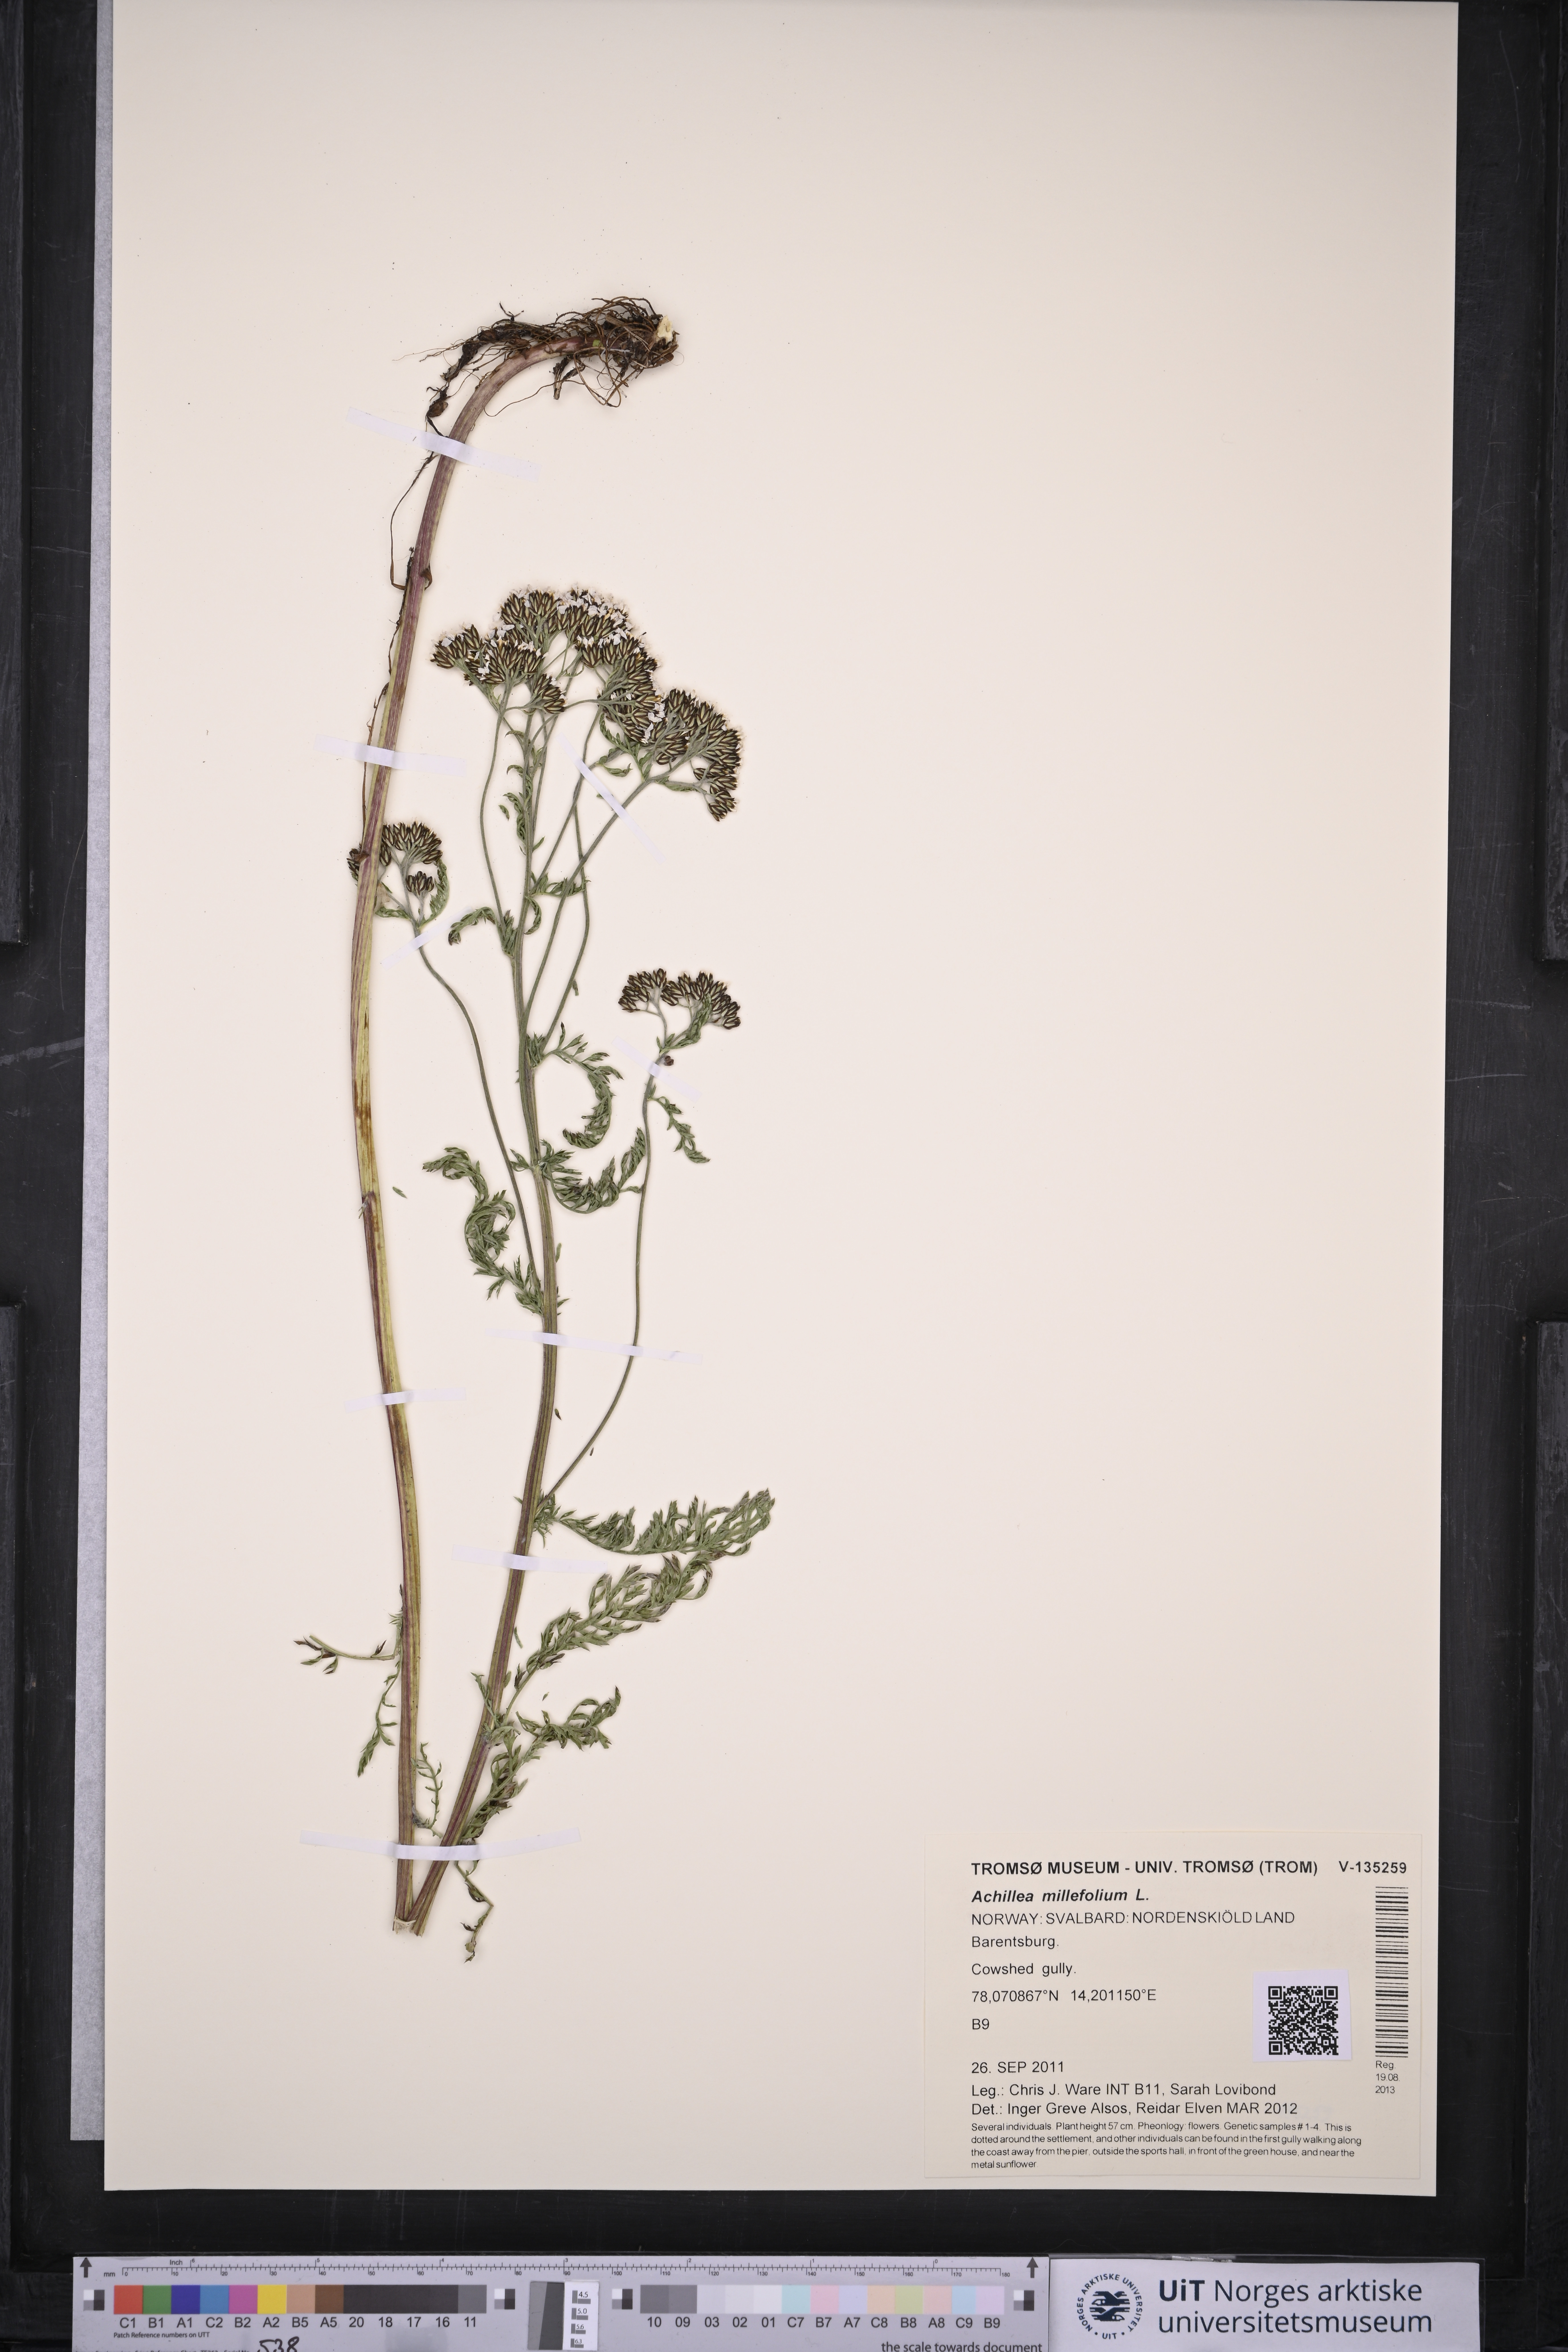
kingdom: Plantae
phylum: Tracheophyta
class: Magnoliopsida
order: Asterales
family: Asteraceae
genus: Achillea
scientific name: Achillea millefolium
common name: Yarrow
